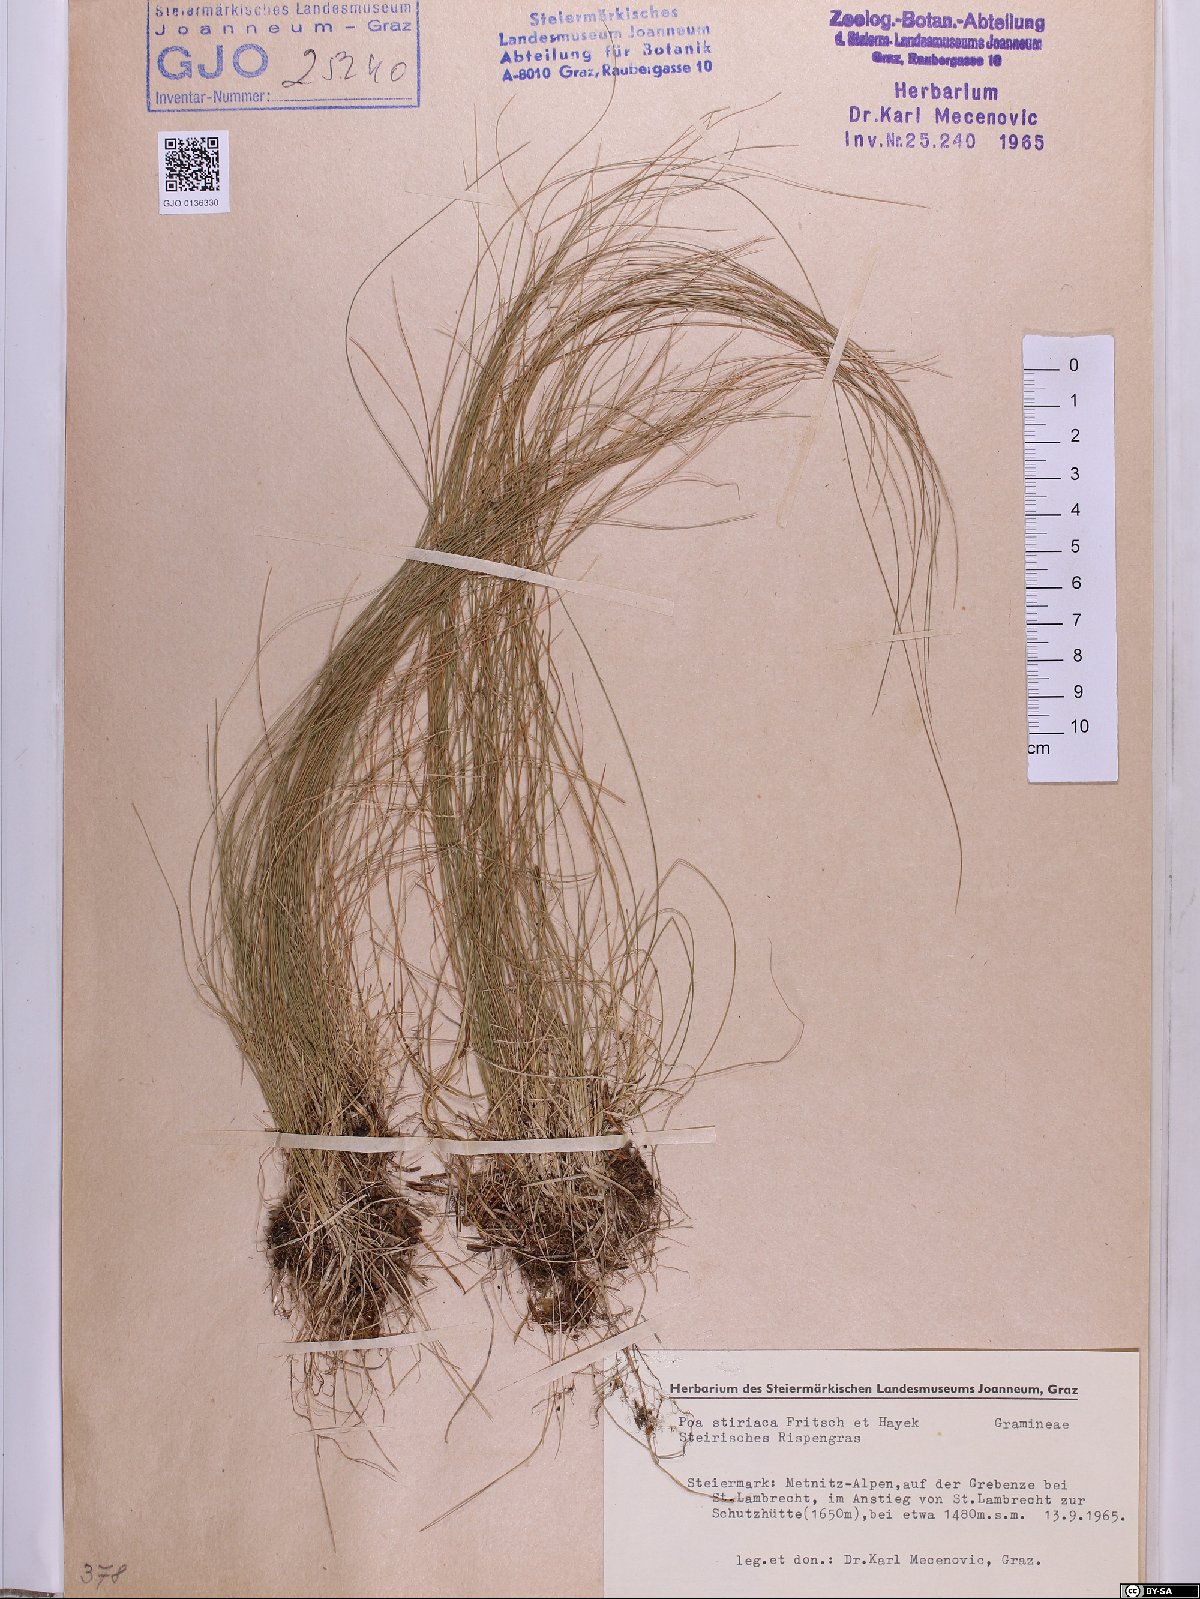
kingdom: Plantae
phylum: Tracheophyta
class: Liliopsida
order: Poales
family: Poaceae
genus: Poa
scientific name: Poa stiriaca
